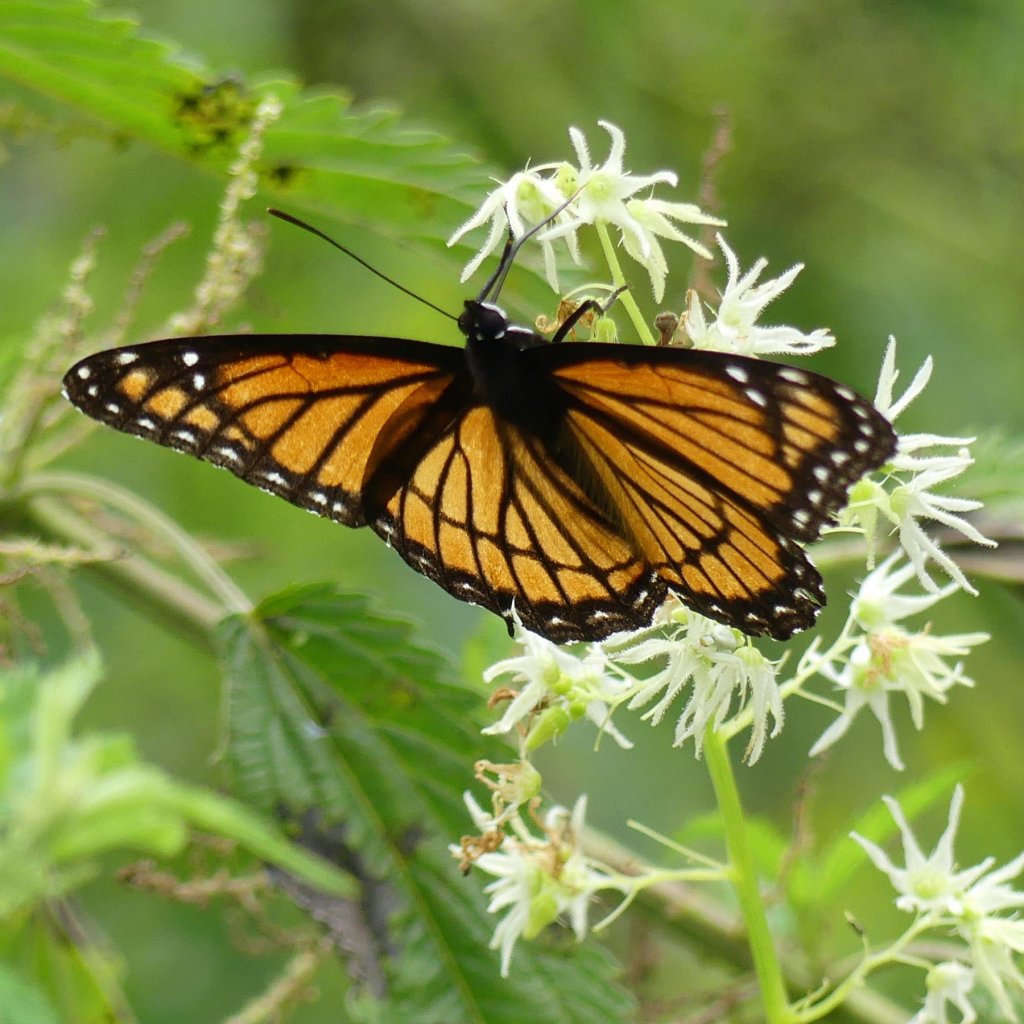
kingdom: Animalia
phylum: Arthropoda
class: Insecta
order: Lepidoptera
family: Nymphalidae
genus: Limenitis
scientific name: Limenitis archippus
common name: Viceroy
